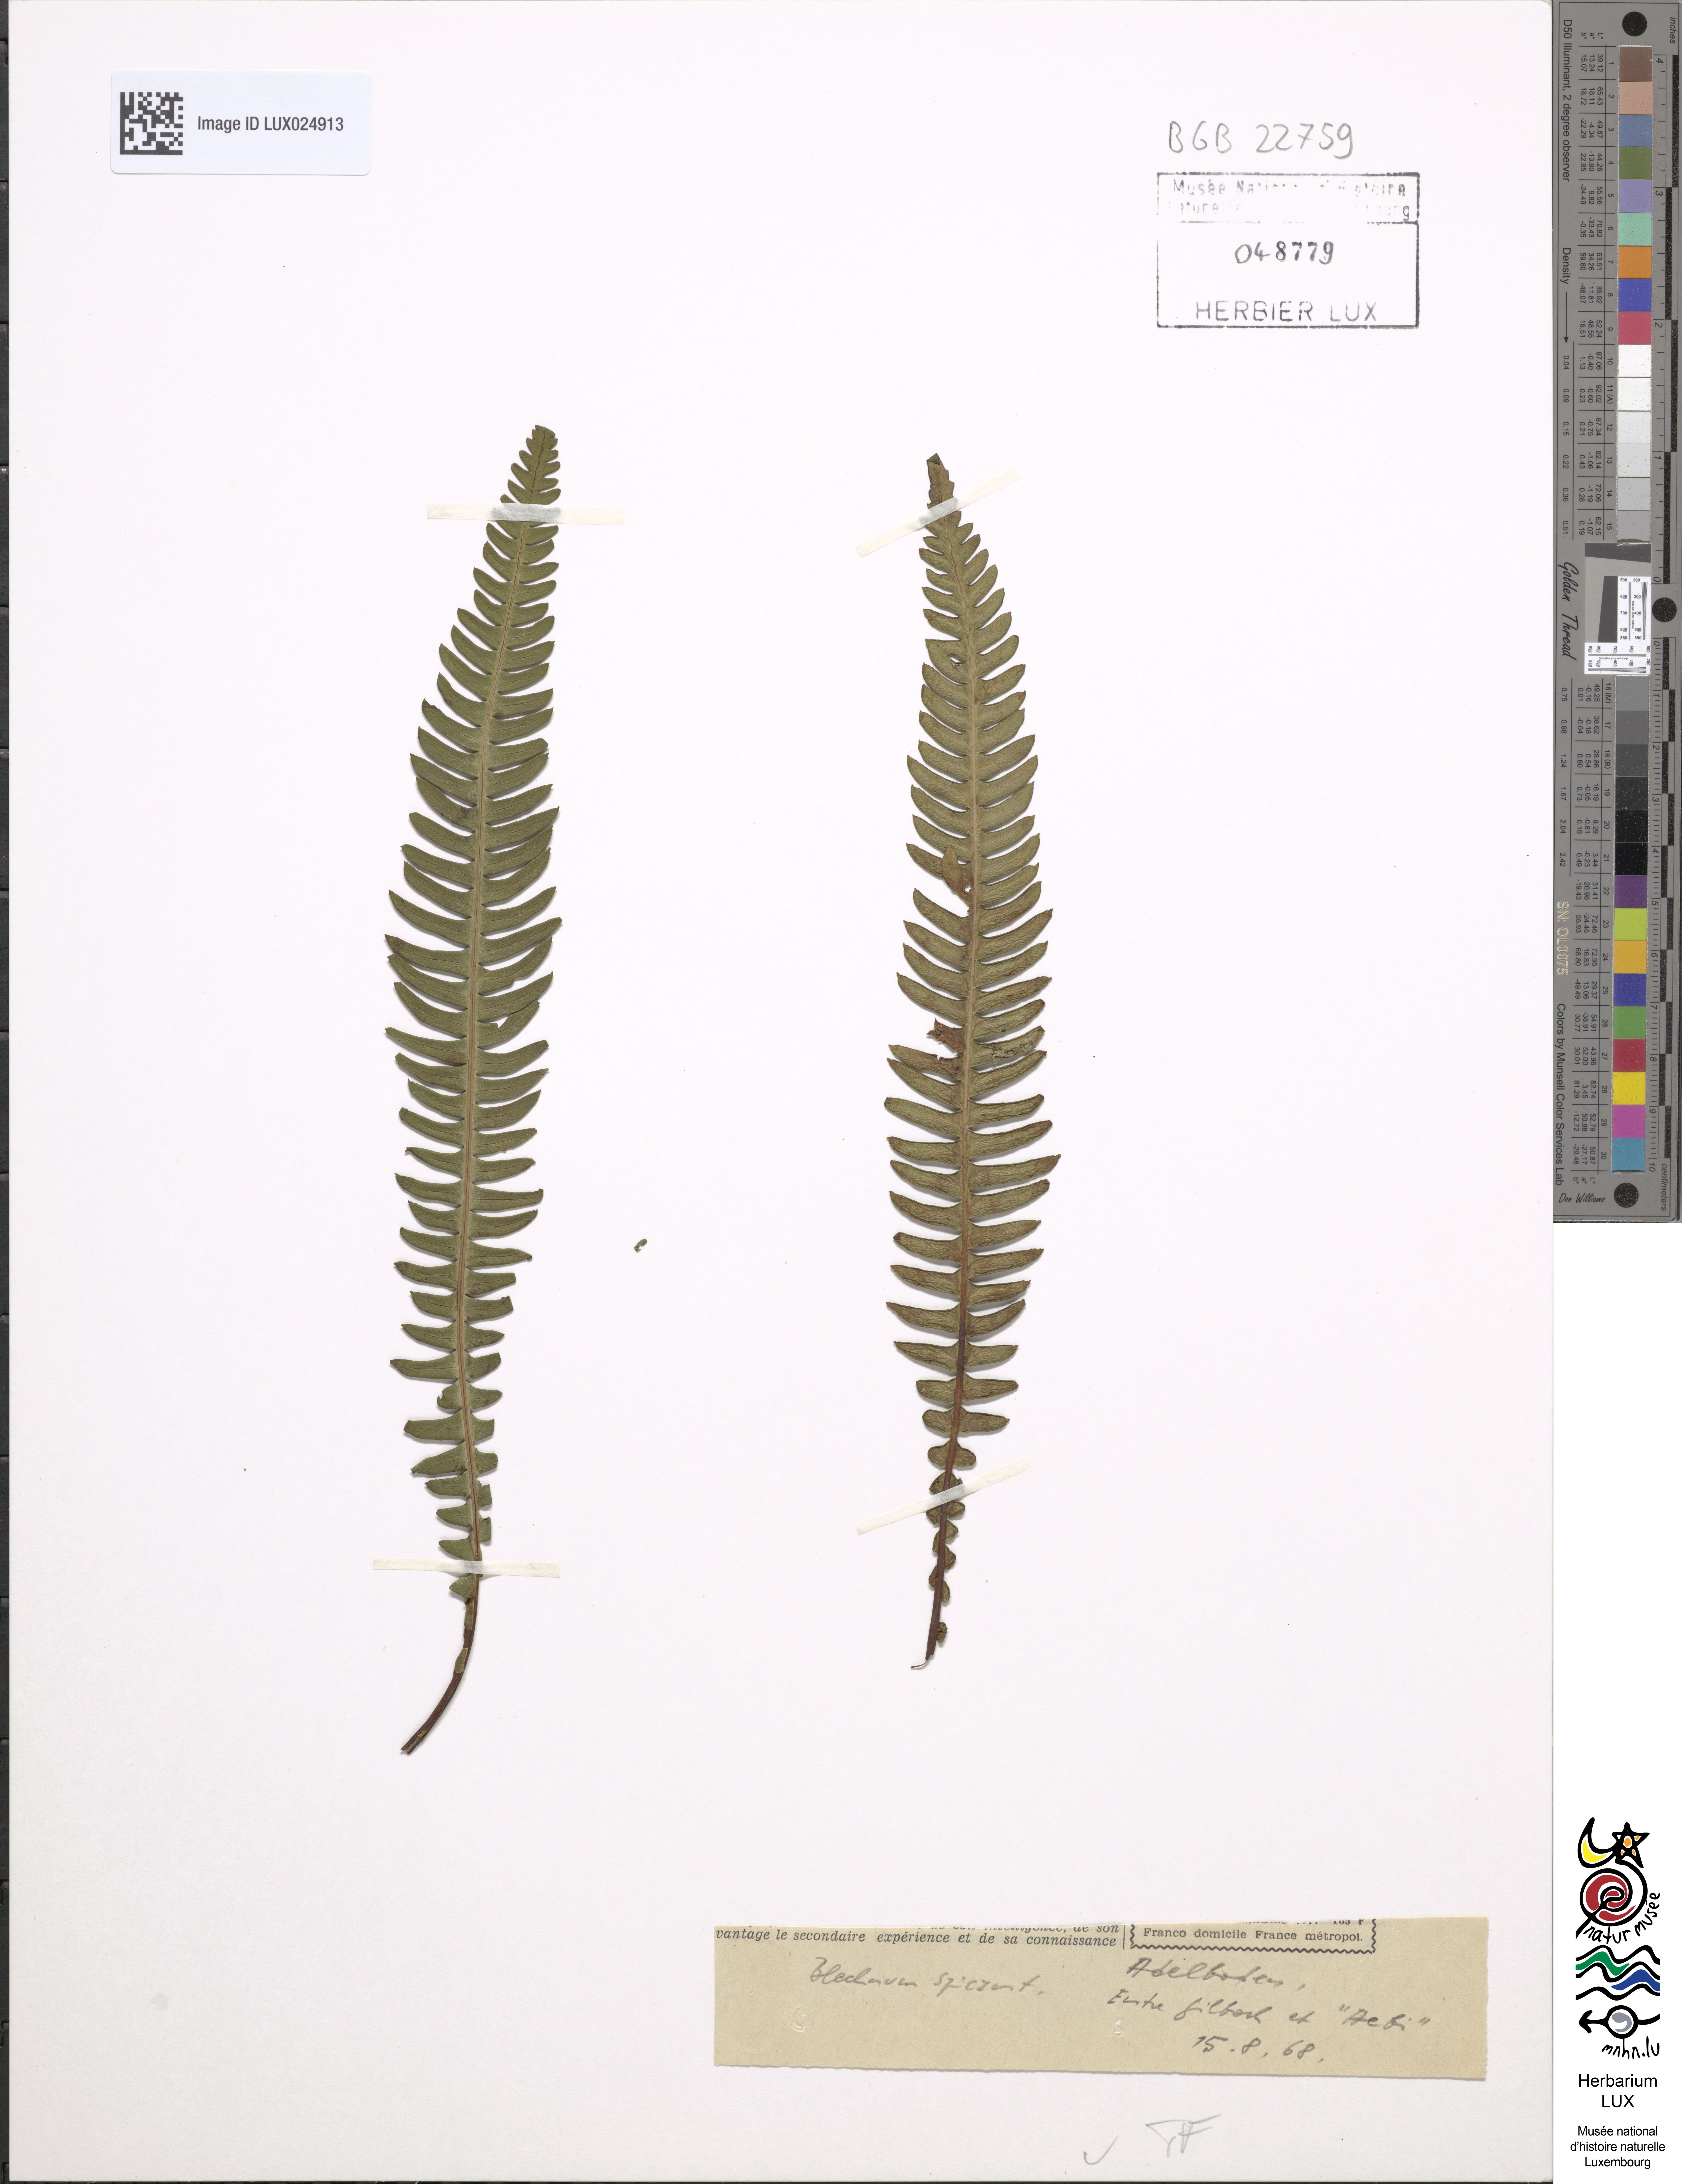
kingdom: Plantae
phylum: Tracheophyta
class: Polypodiopsida
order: Polypodiales
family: Polypodiaceae
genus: Polypodium
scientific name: Polypodium vulgare
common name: Common polypody
